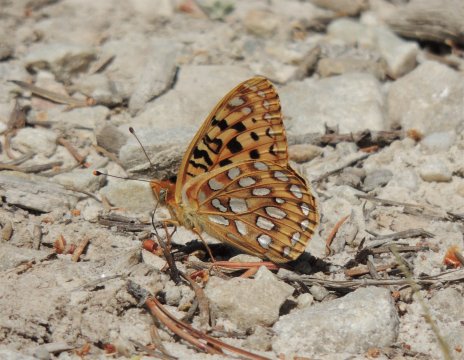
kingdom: Animalia
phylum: Arthropoda
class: Insecta
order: Lepidoptera
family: Nymphalidae
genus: Speyeria
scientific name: Speyeria coronis
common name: Coronis Fritillary
